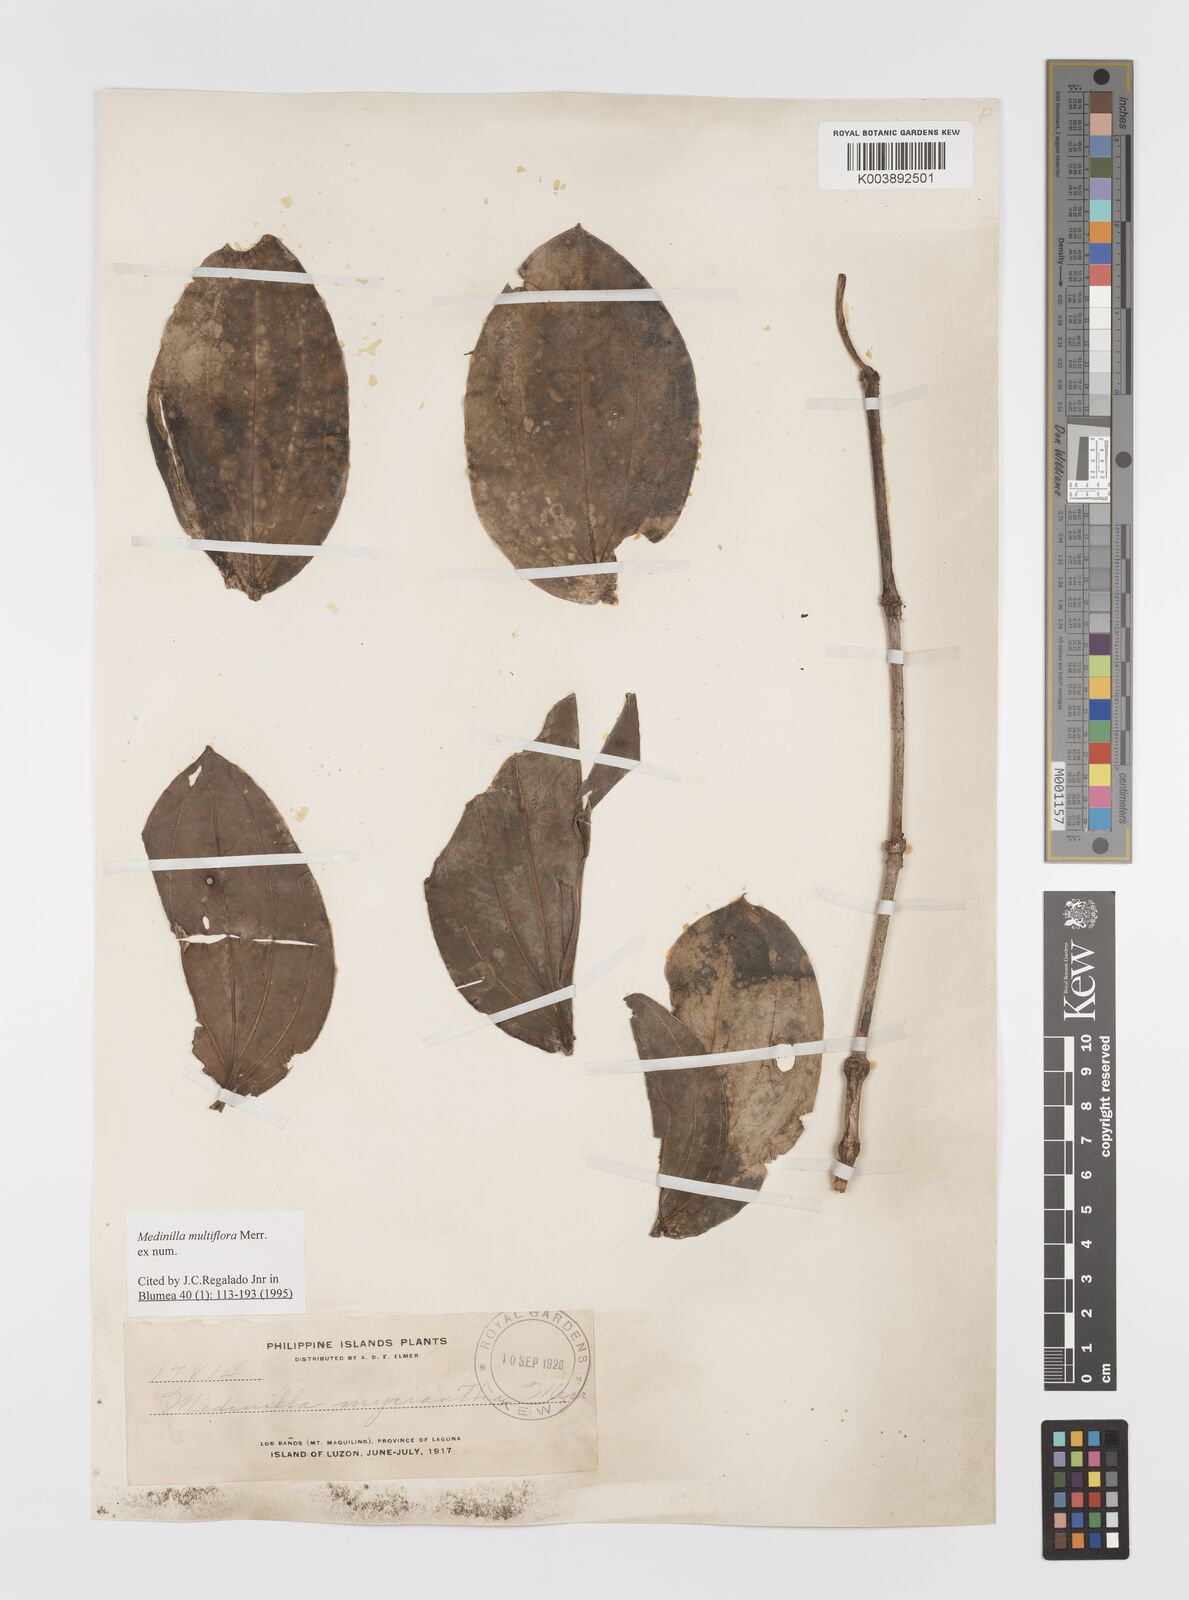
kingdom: Plantae
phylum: Tracheophyta
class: Magnoliopsida
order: Myrtales
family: Melastomataceae
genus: Medinilla
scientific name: Medinilla multiflora
